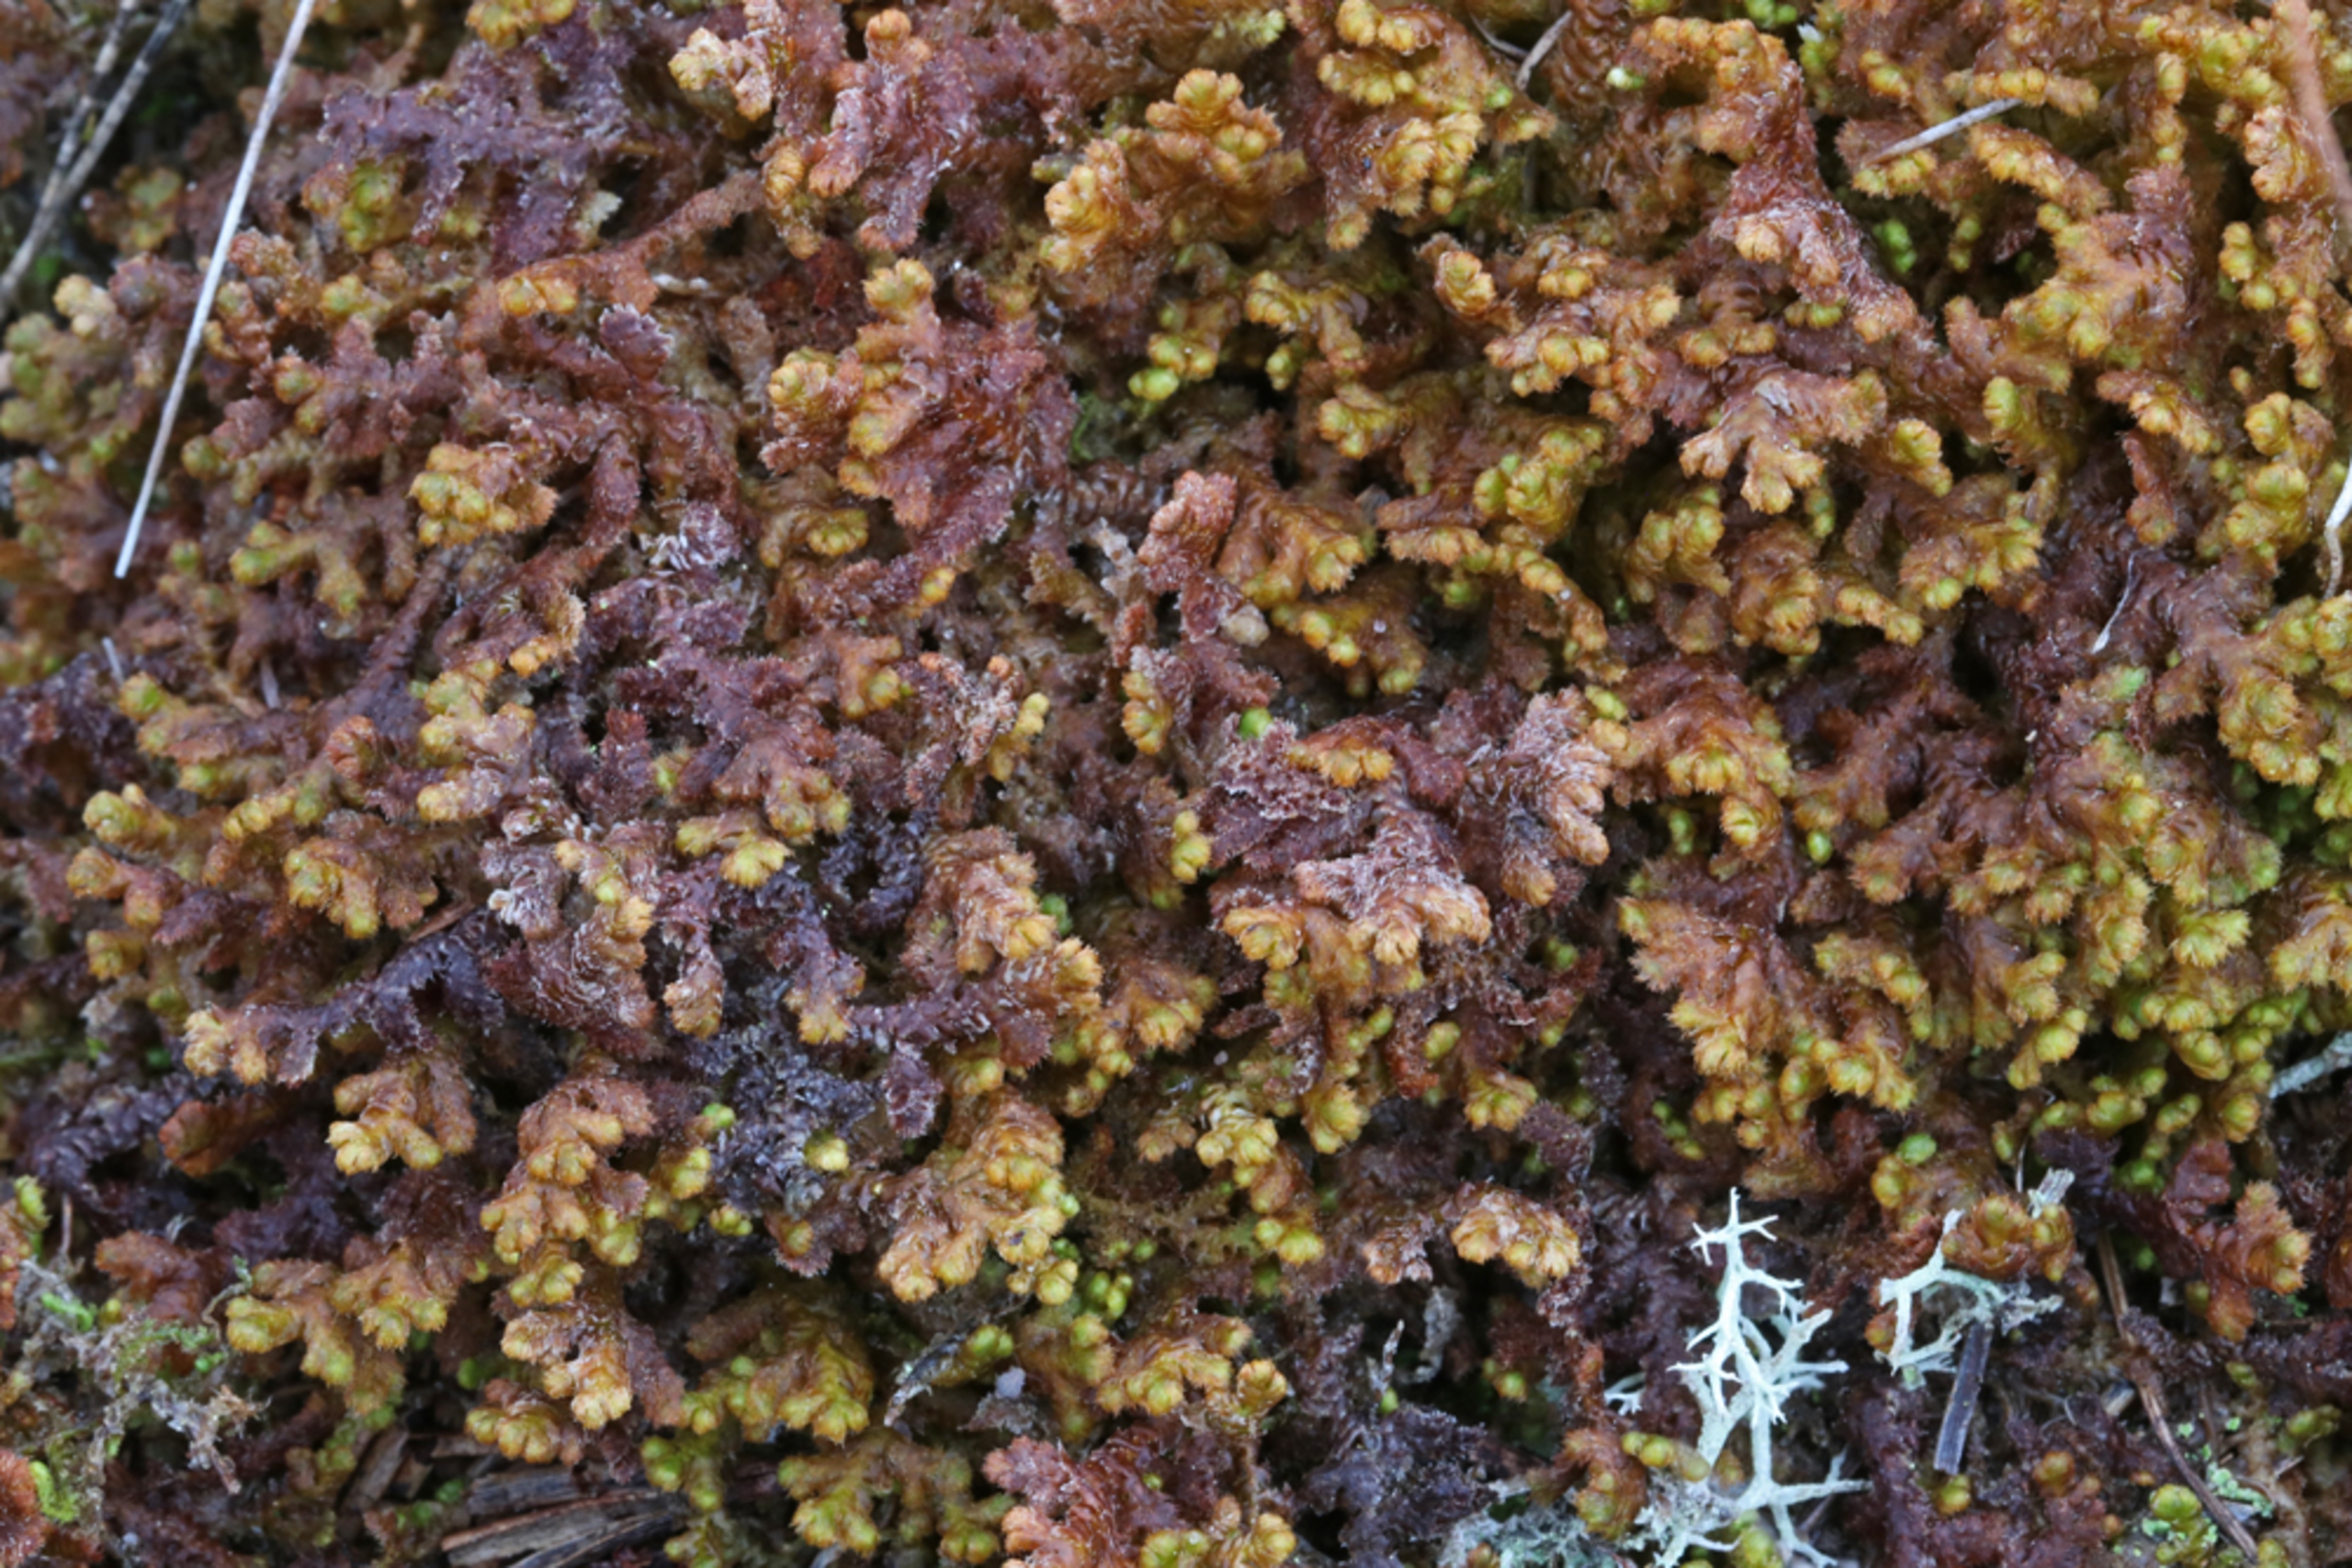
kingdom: Plantae
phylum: Marchantiophyta
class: Jungermanniopsida
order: Ptilidiales
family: Ptilidiaceae
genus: Ptilidium
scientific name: Ptilidium ciliare
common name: Almindelig frynsemos
